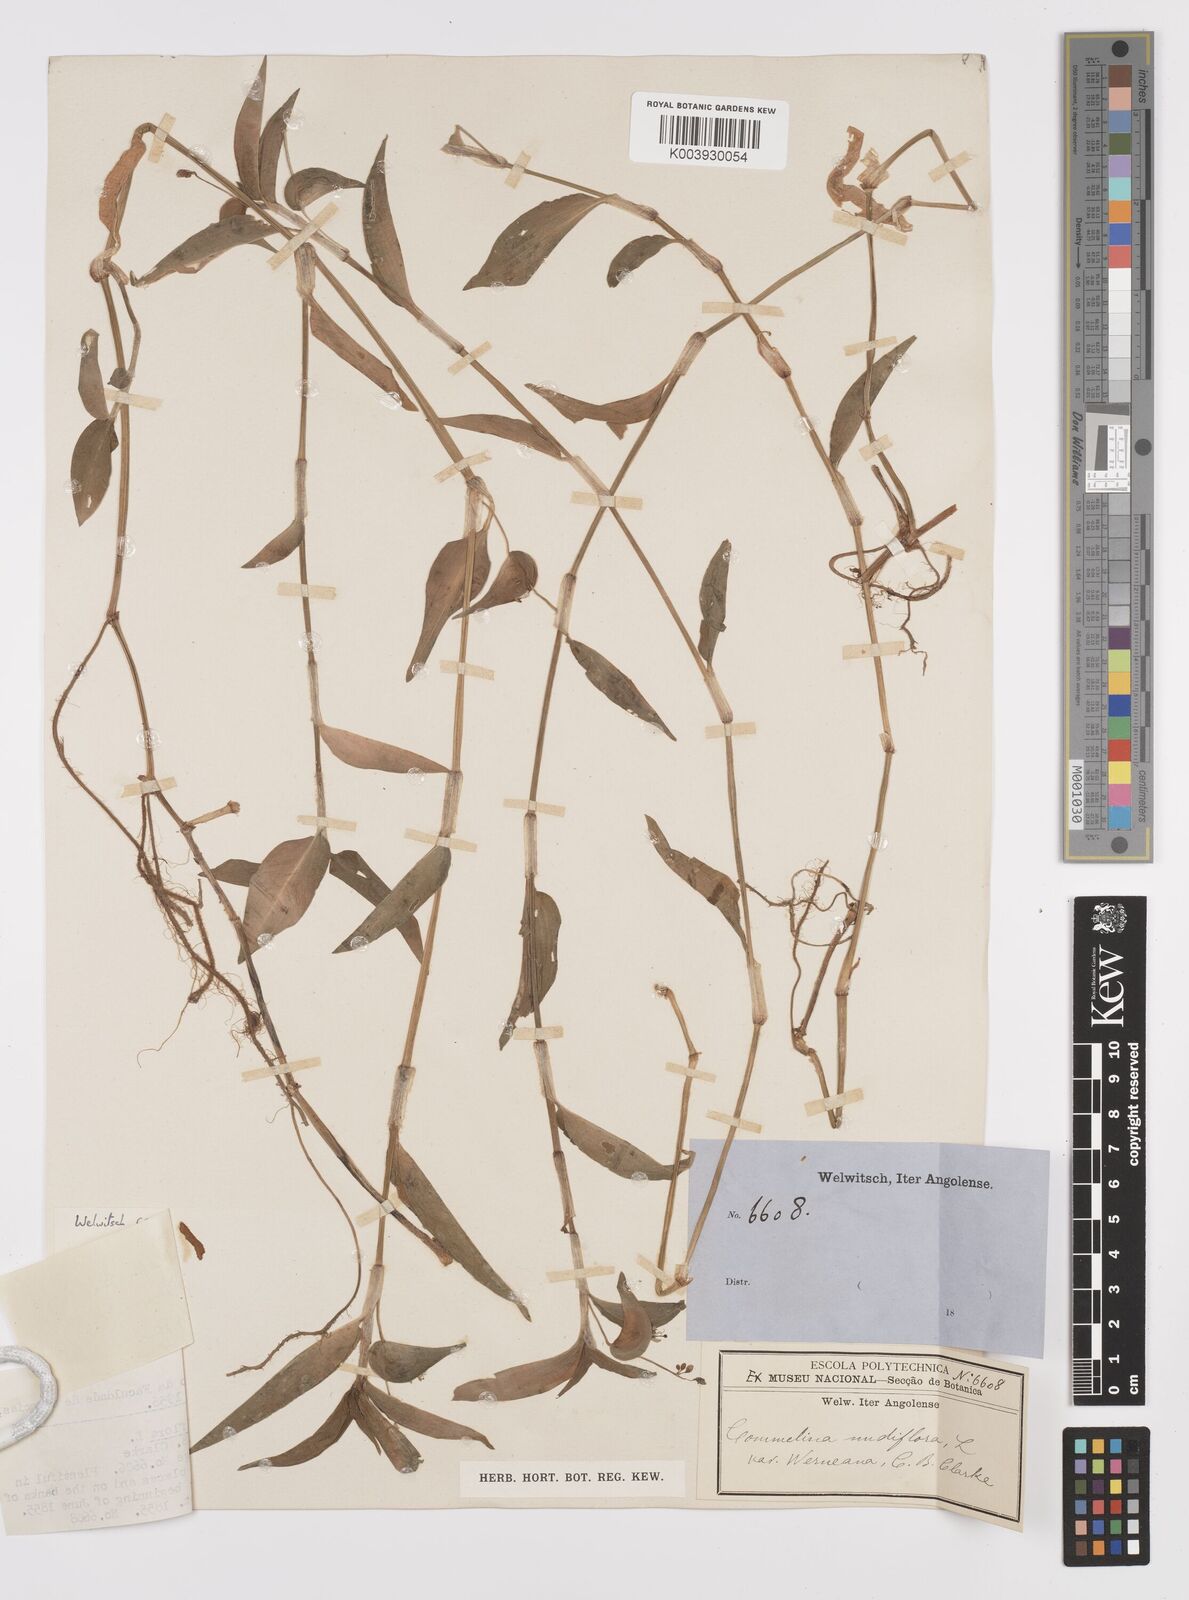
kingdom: Plantae
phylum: Tracheophyta
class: Liliopsida
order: Commelinales
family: Commelinaceae
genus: Commelina
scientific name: Commelina diffusa
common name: Climbing dayflower
